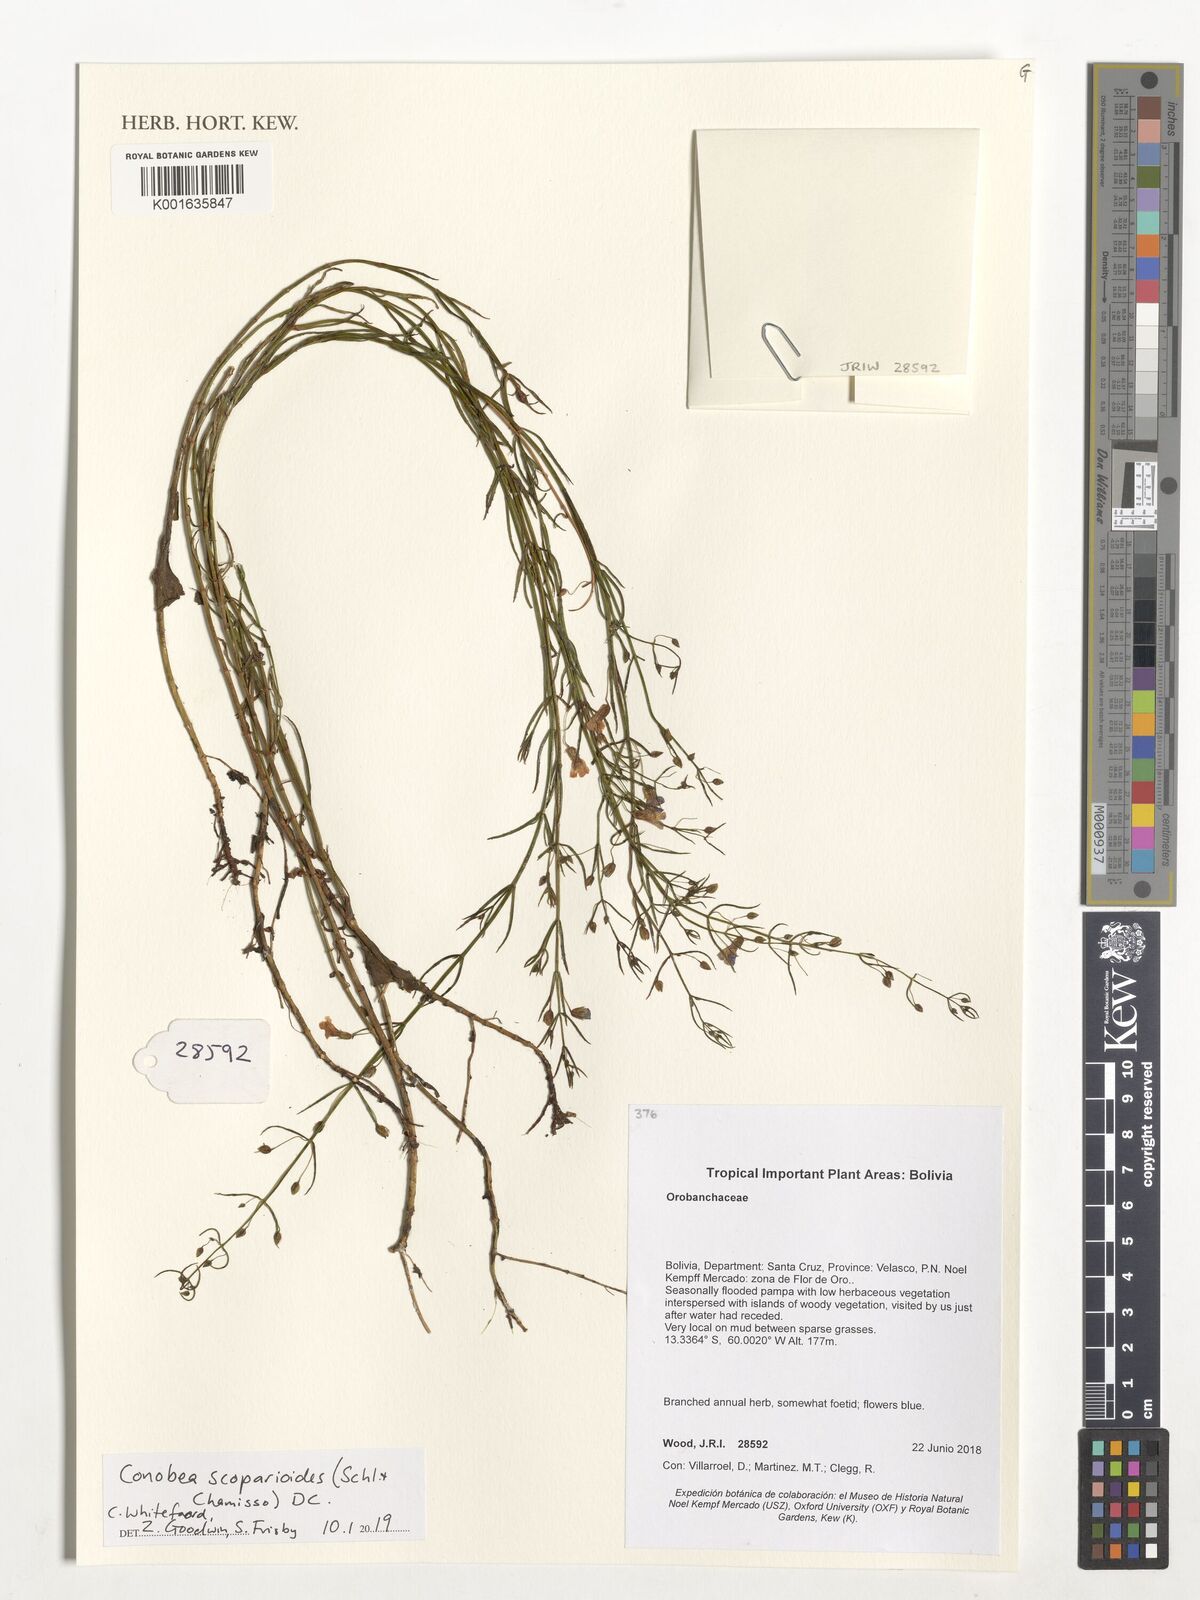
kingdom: Plantae
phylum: Tracheophyta
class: Magnoliopsida
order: Lamiales
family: Plantaginaceae
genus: Conobea
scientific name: Conobea scoparioides
